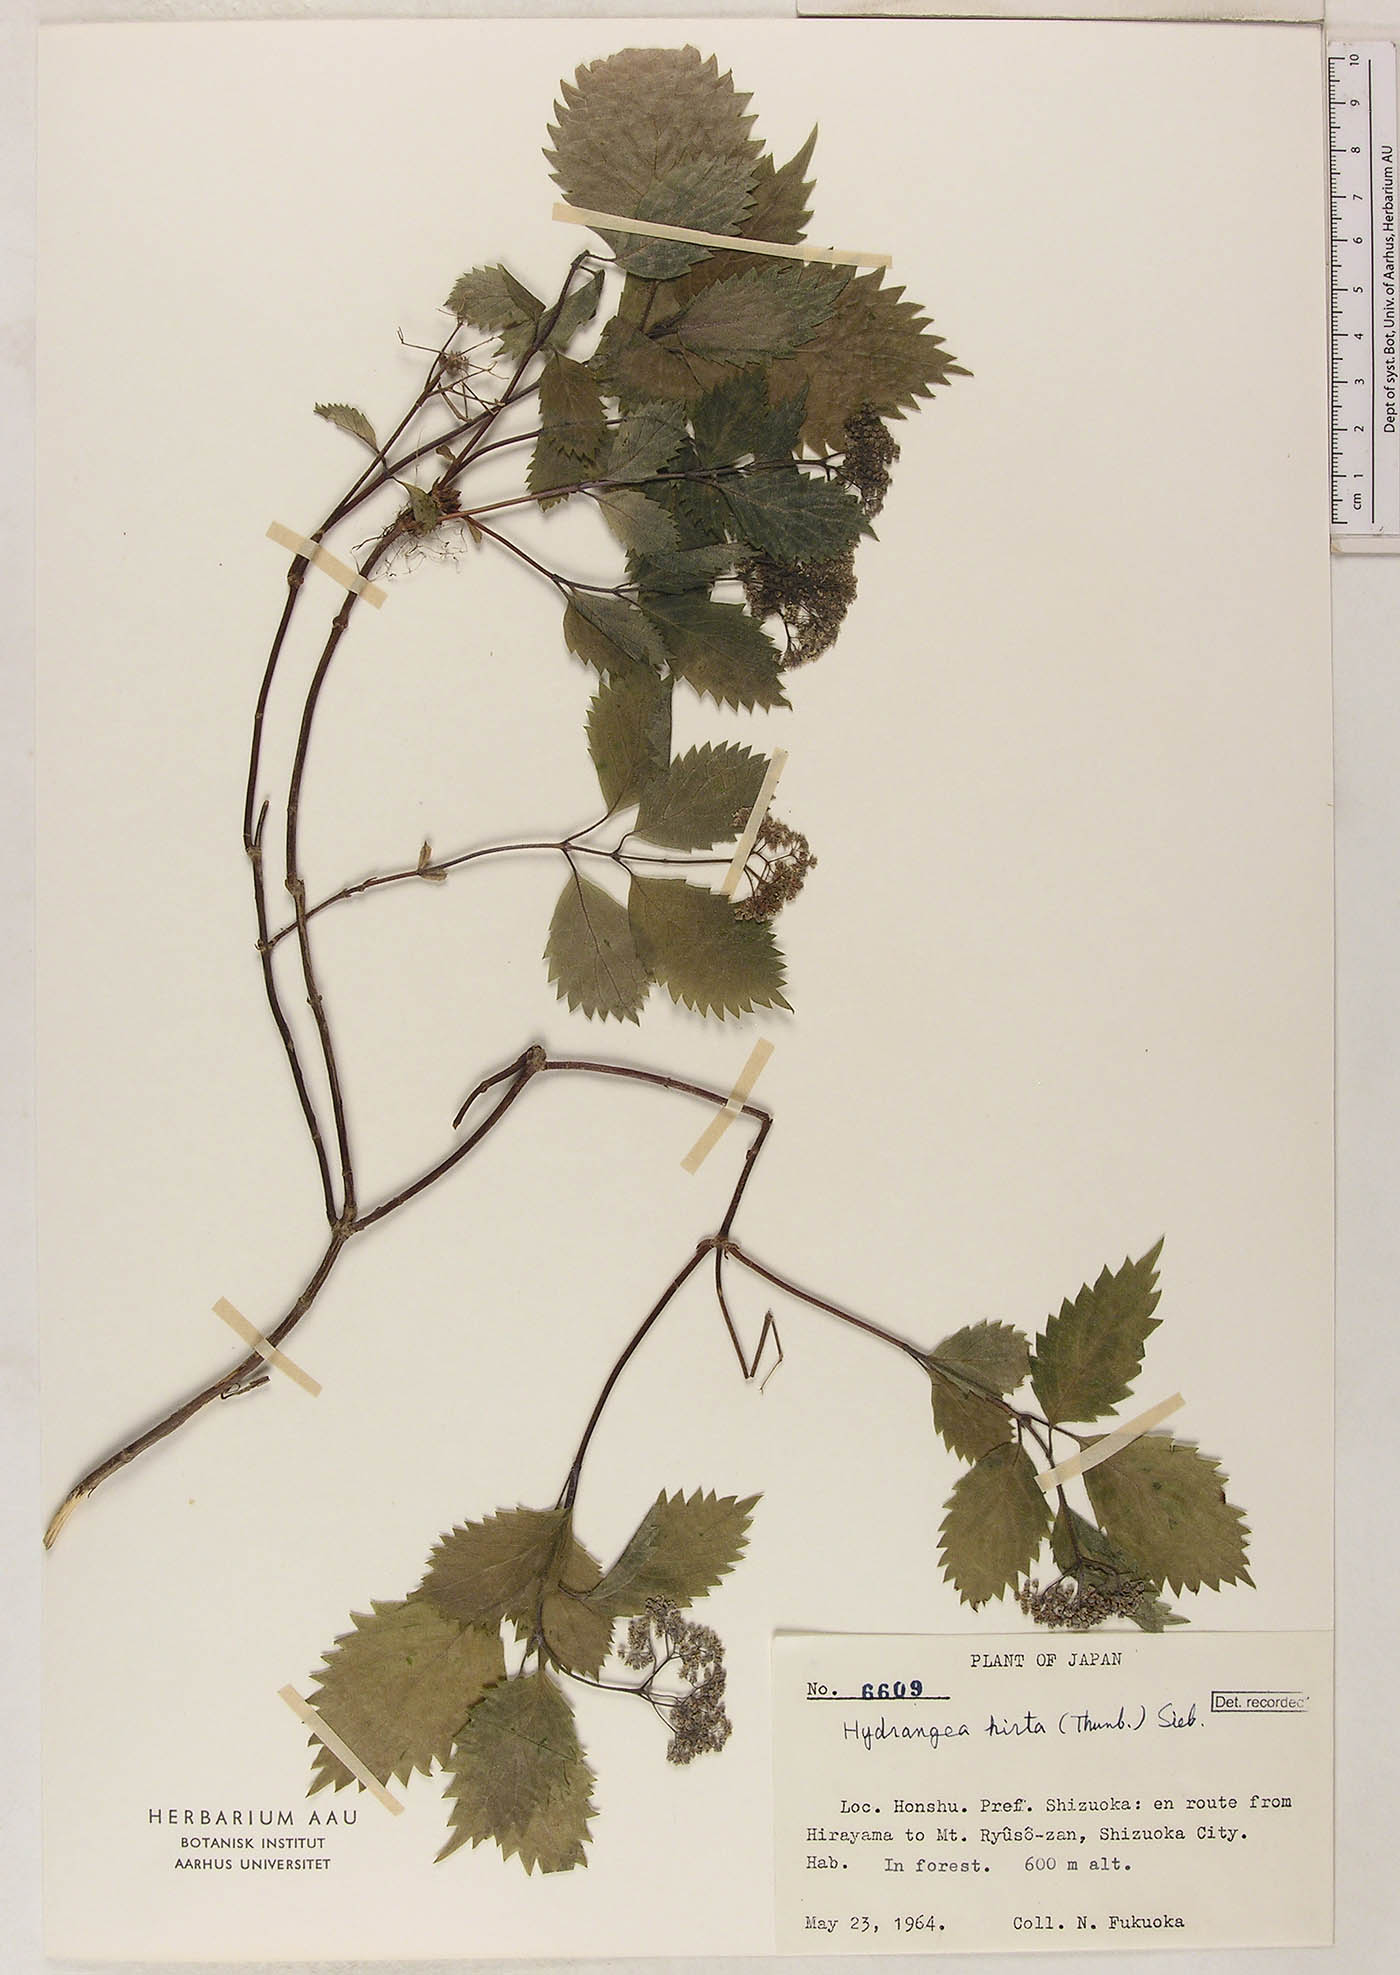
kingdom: Plantae
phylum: Tracheophyta
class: Magnoliopsida
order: Cornales
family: Hydrangeaceae
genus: Hydrangea
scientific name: Hydrangea hirta
